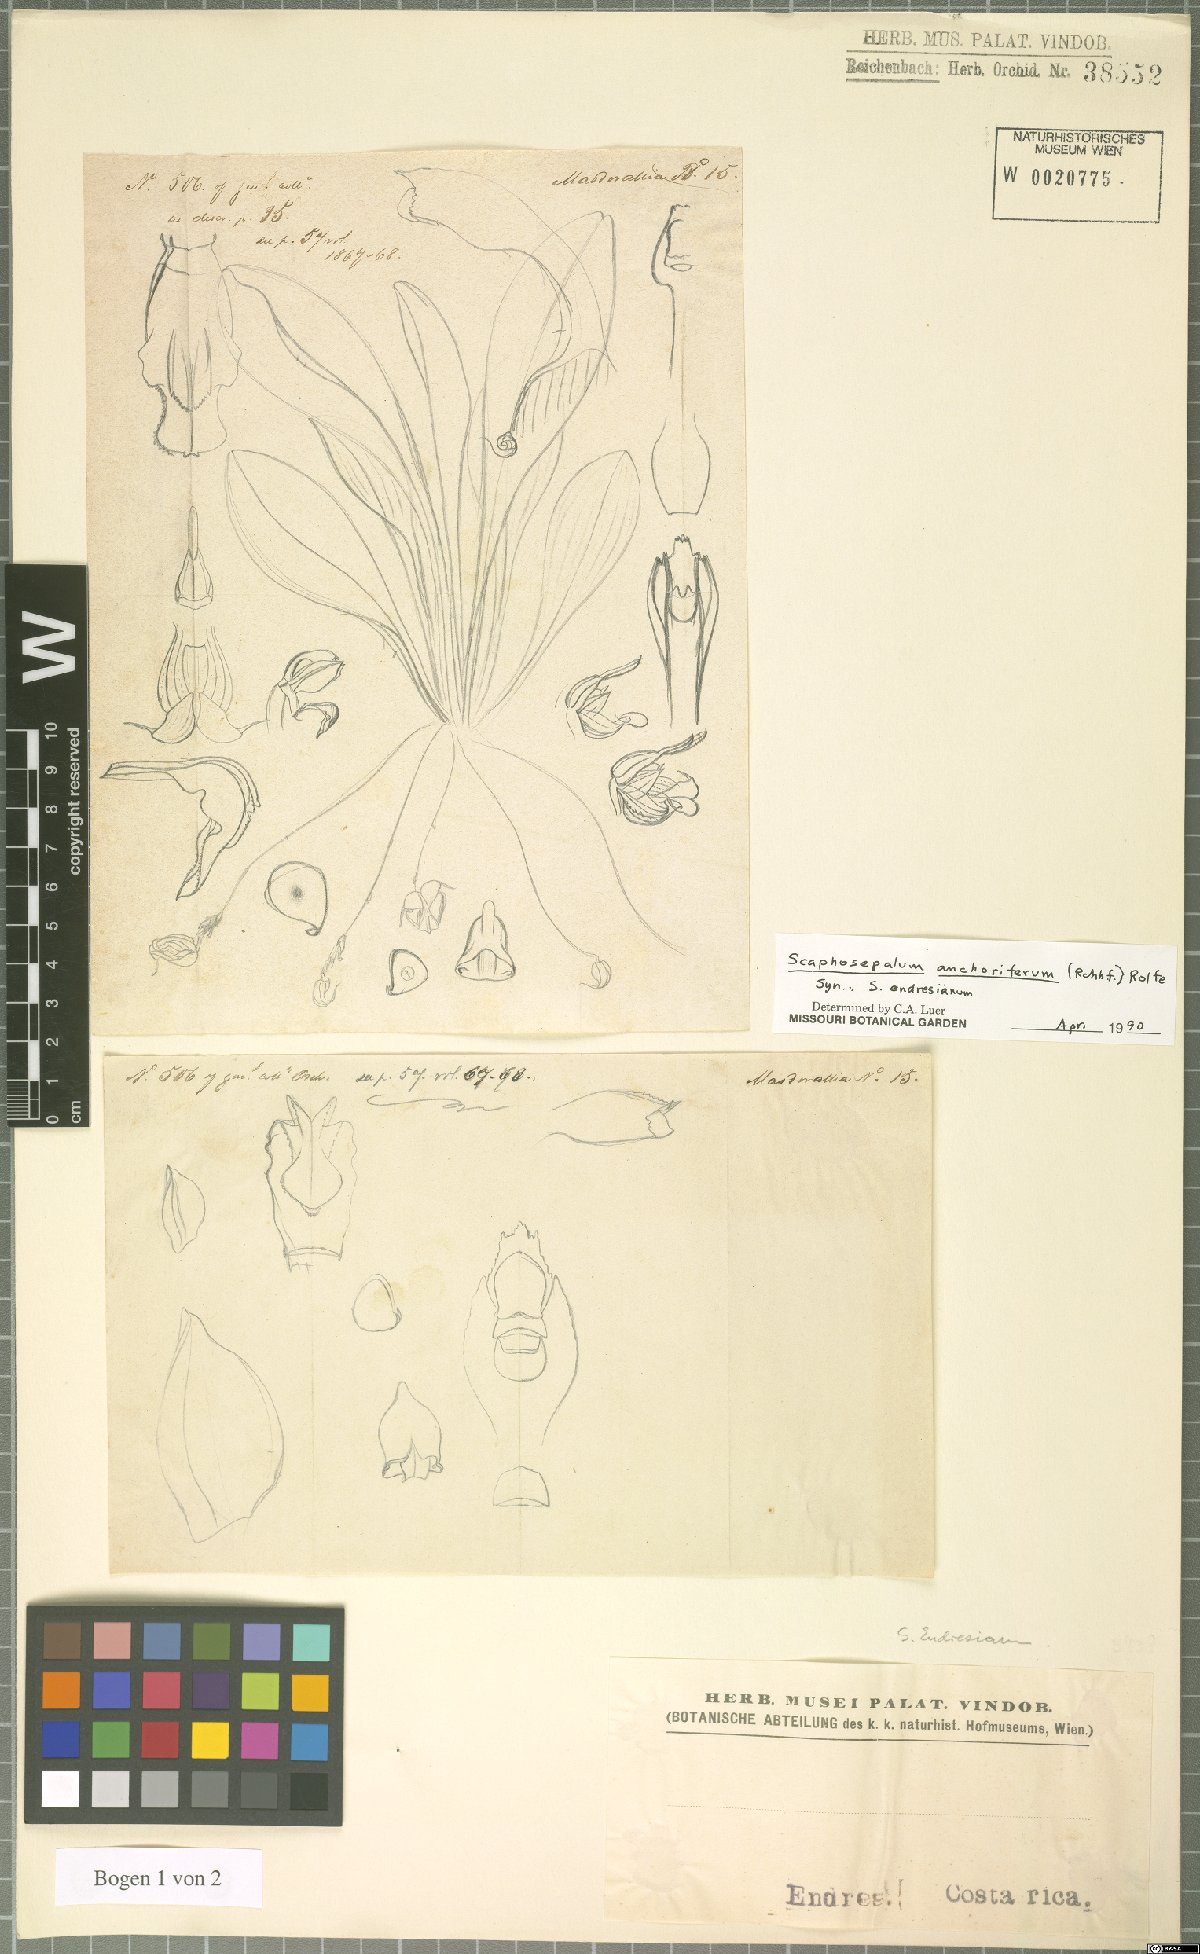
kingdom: Plantae
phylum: Tracheophyta
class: Liliopsida
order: Asparagales
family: Orchidaceae
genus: Scaphosepalum
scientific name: Scaphosepalum anchoriferum
